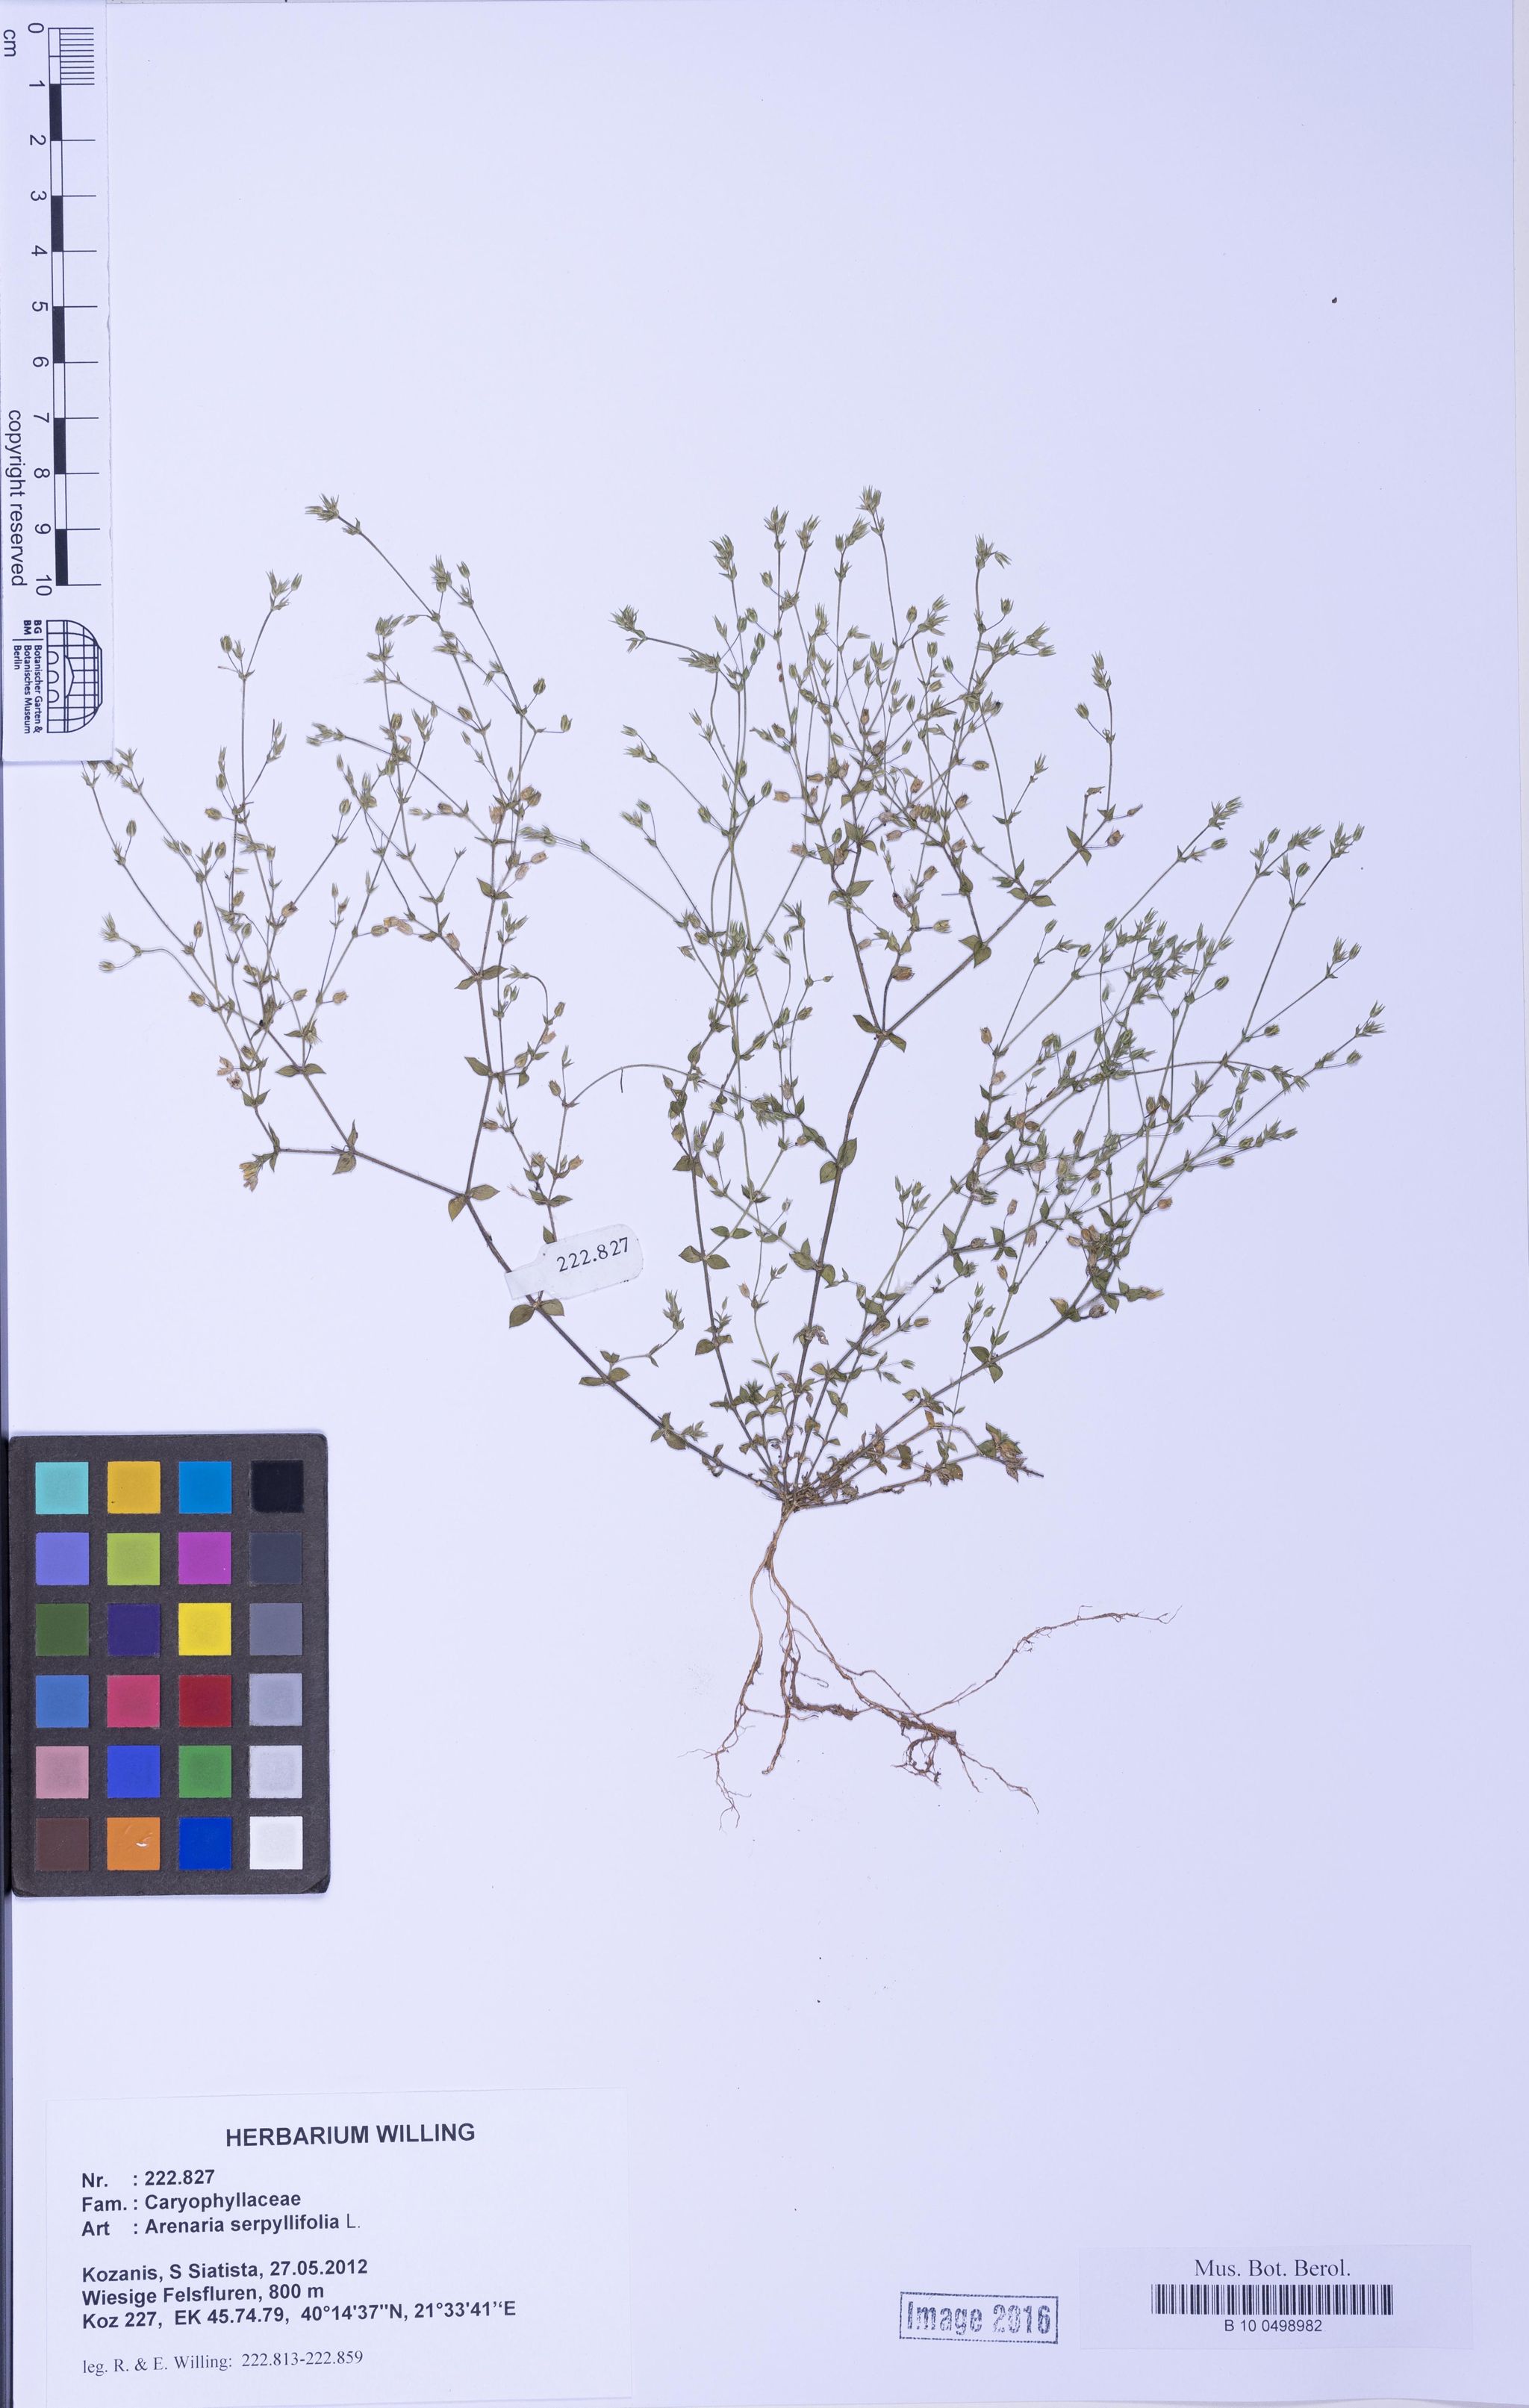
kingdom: Plantae
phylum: Tracheophyta
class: Magnoliopsida
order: Caryophyllales
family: Caryophyllaceae
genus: Arenaria
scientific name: Arenaria serpyllifolia
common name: Thyme-leaved sandwort
